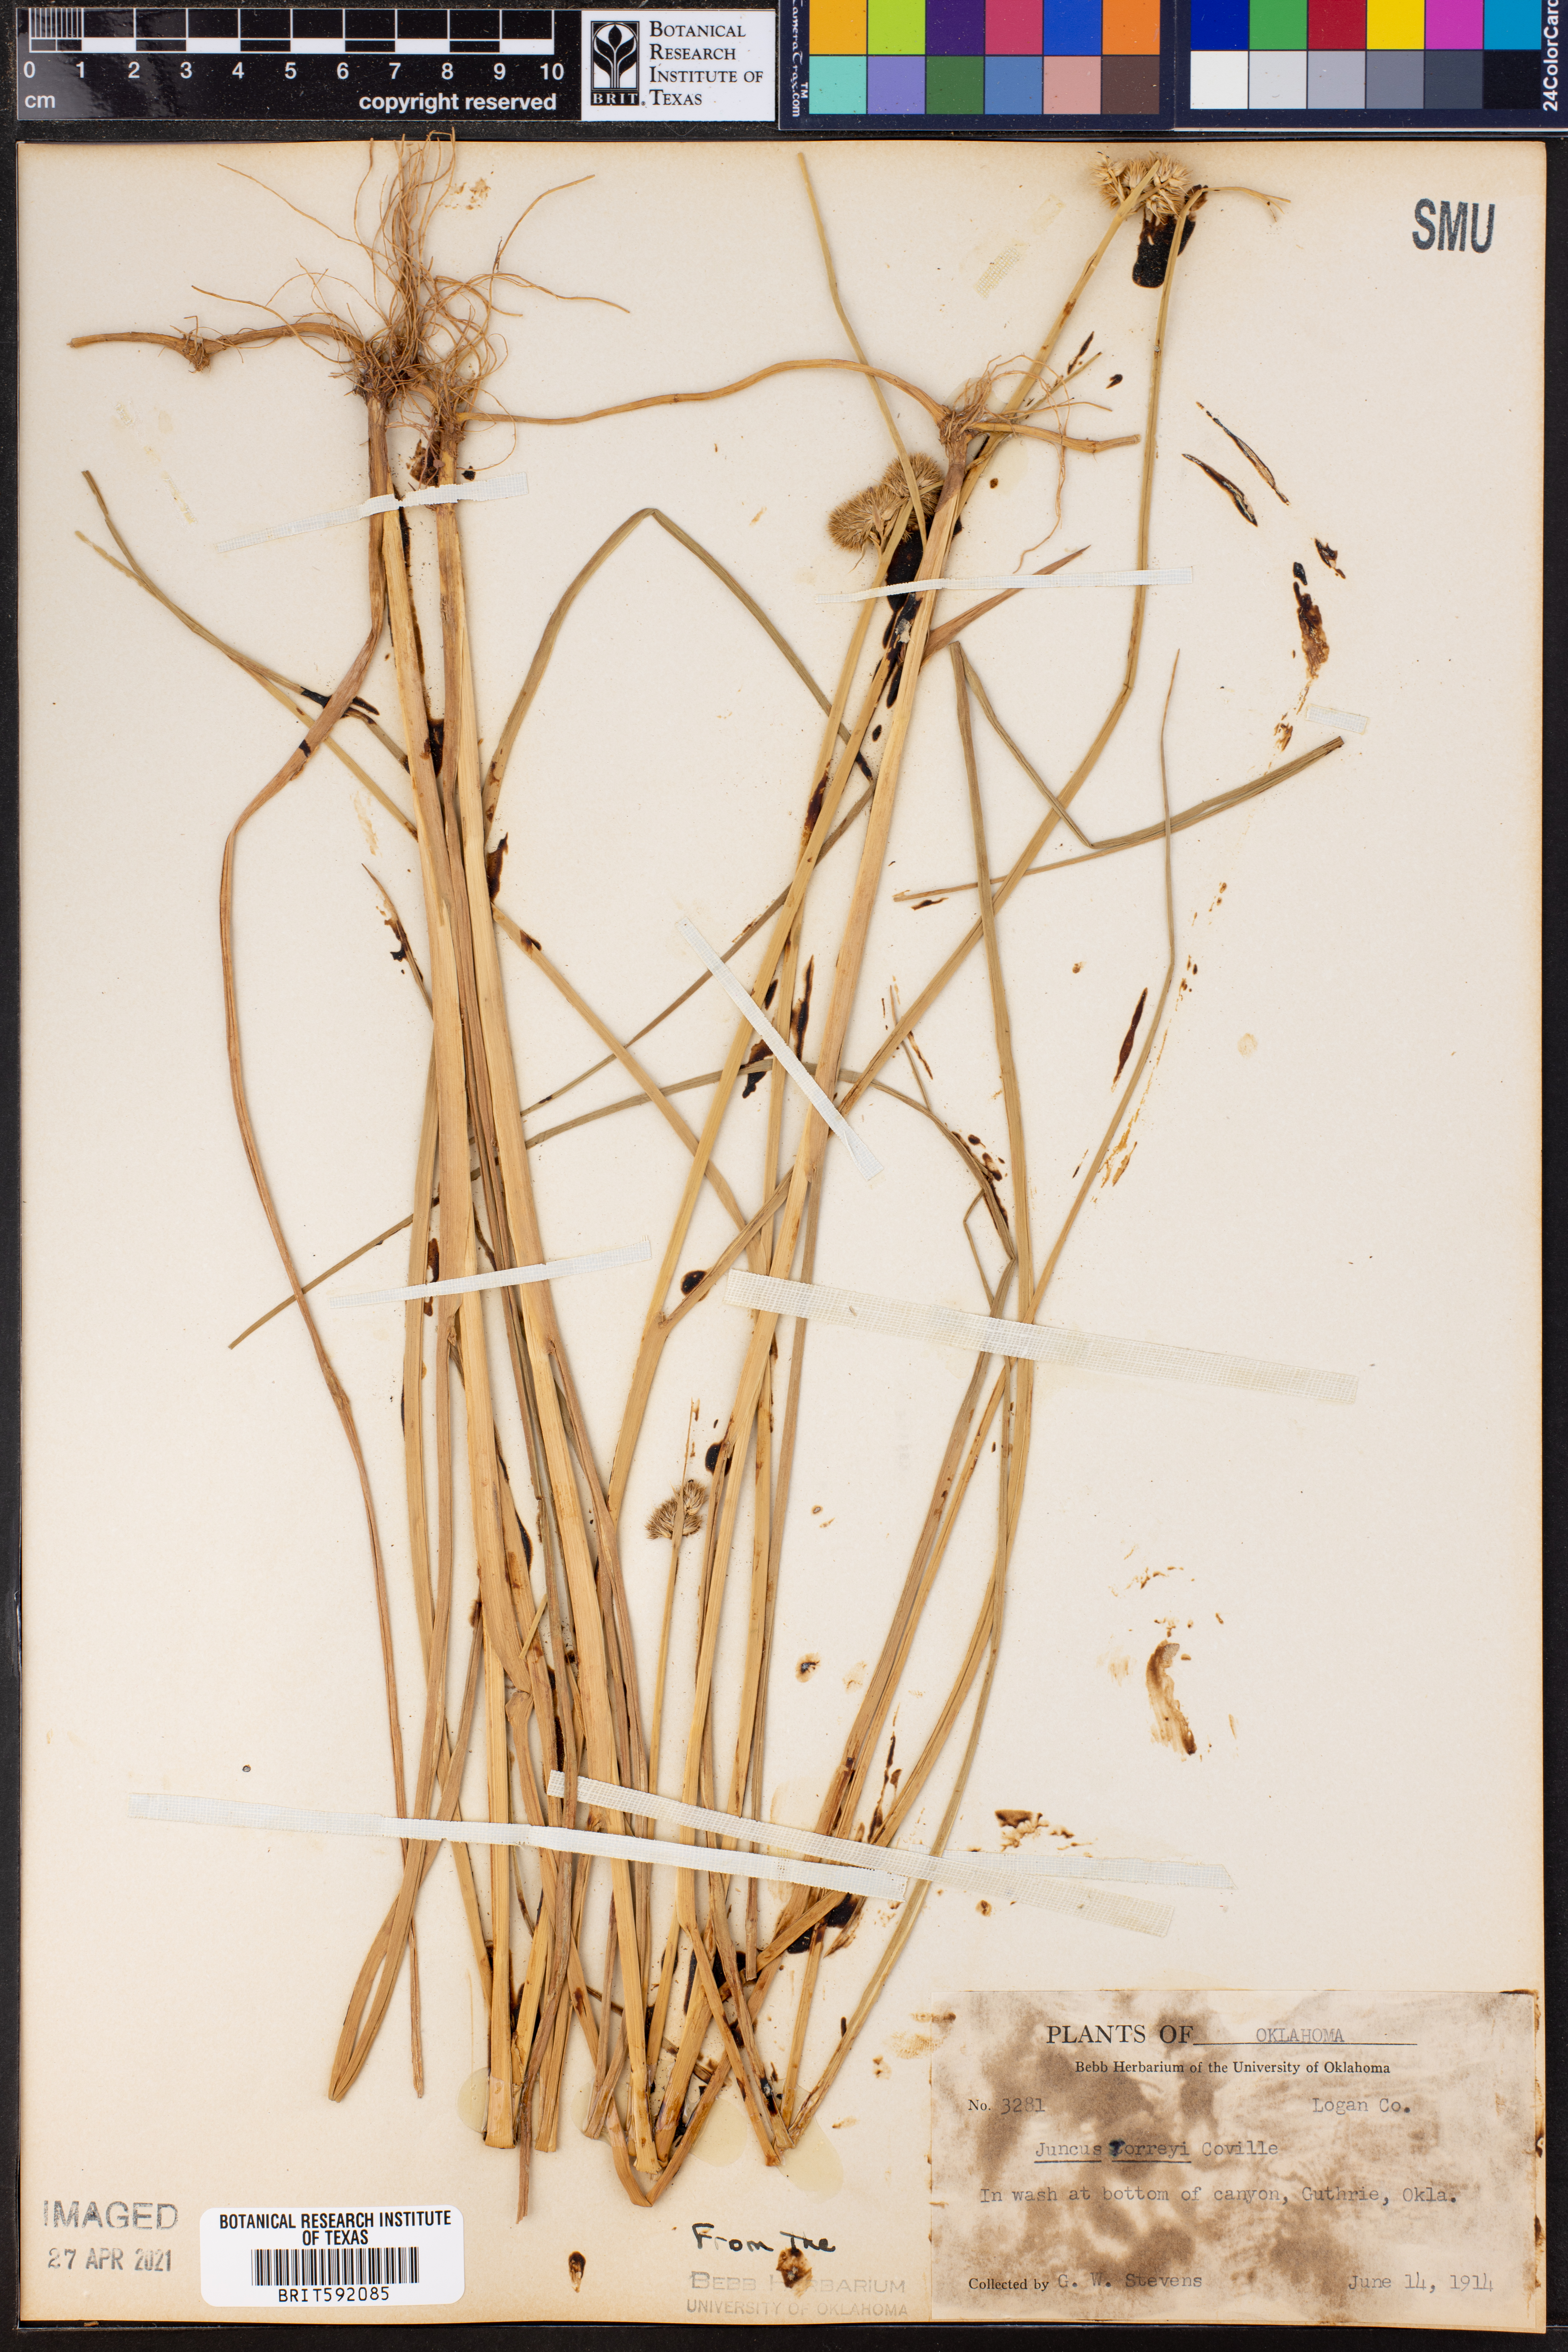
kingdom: Plantae
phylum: Tracheophyta
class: Liliopsida
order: Poales
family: Juncaceae
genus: Juncus
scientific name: Juncus torreyi
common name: Torrey's rush
